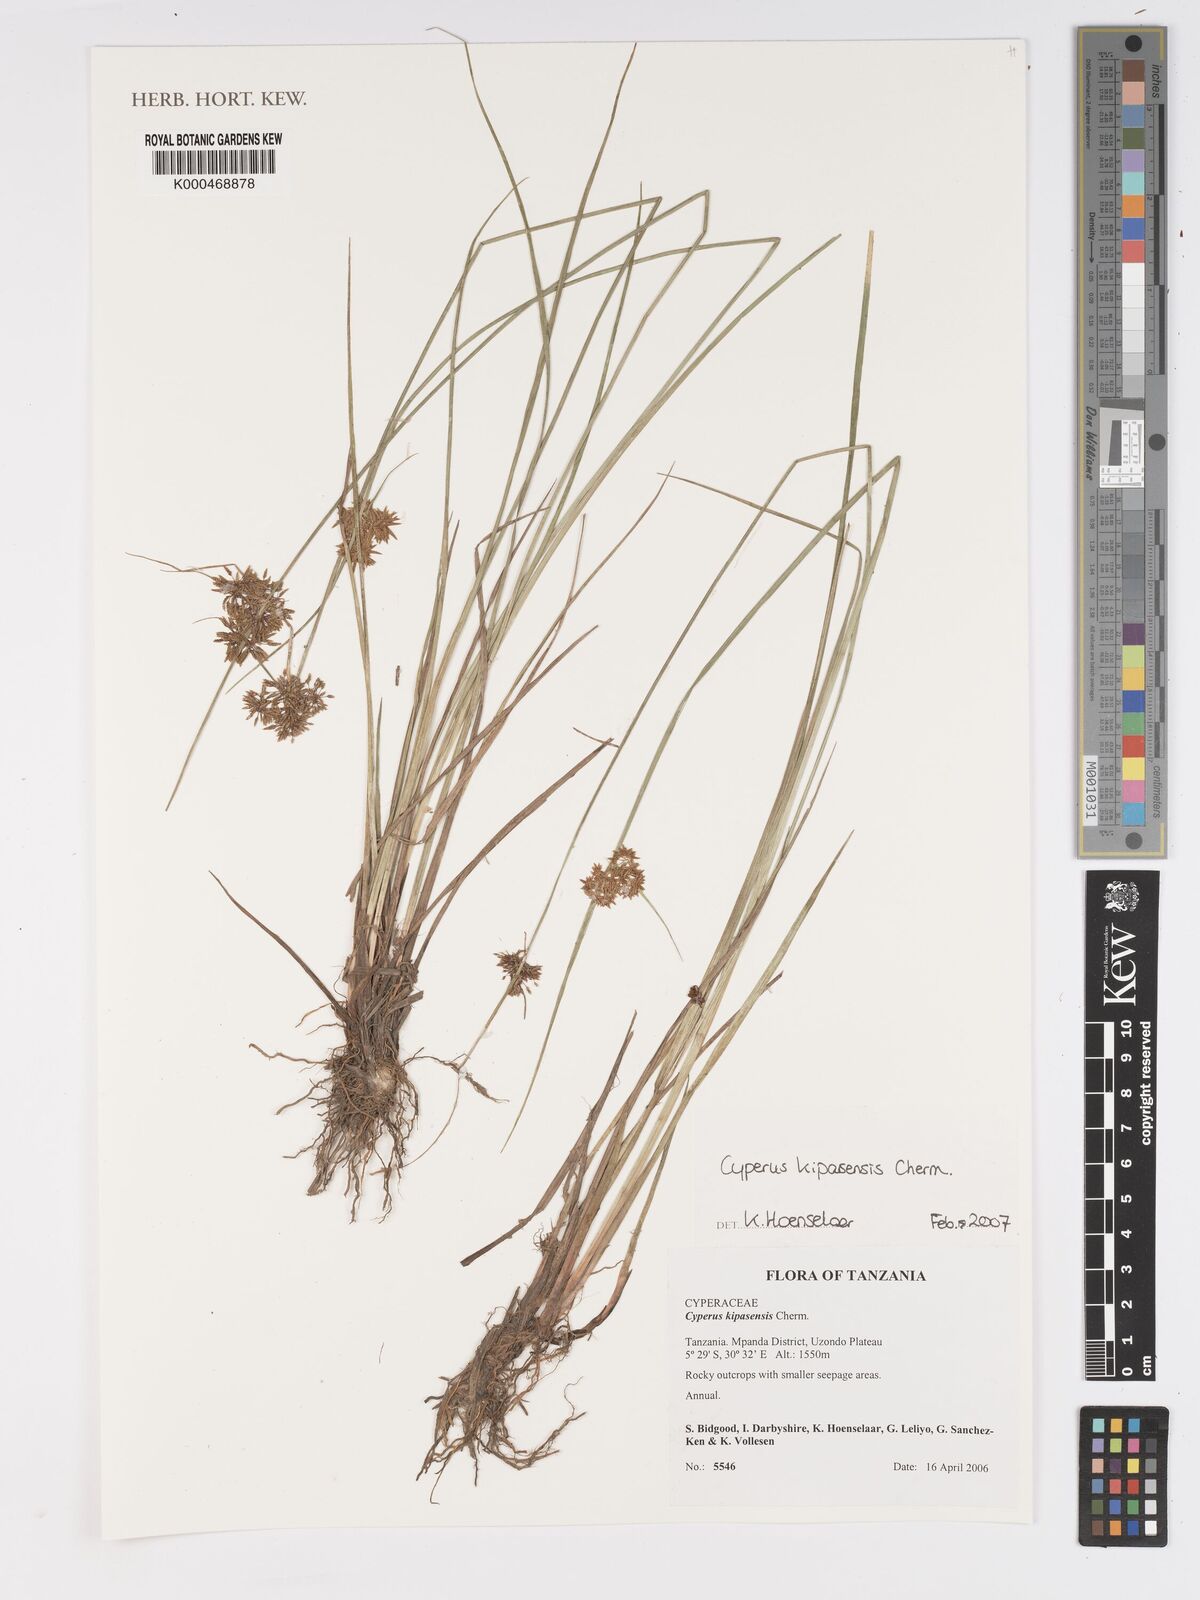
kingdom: Plantae
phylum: Tracheophyta
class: Liliopsida
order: Poales
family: Cyperaceae
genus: Cyperus
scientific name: Cyperus kipasensis
